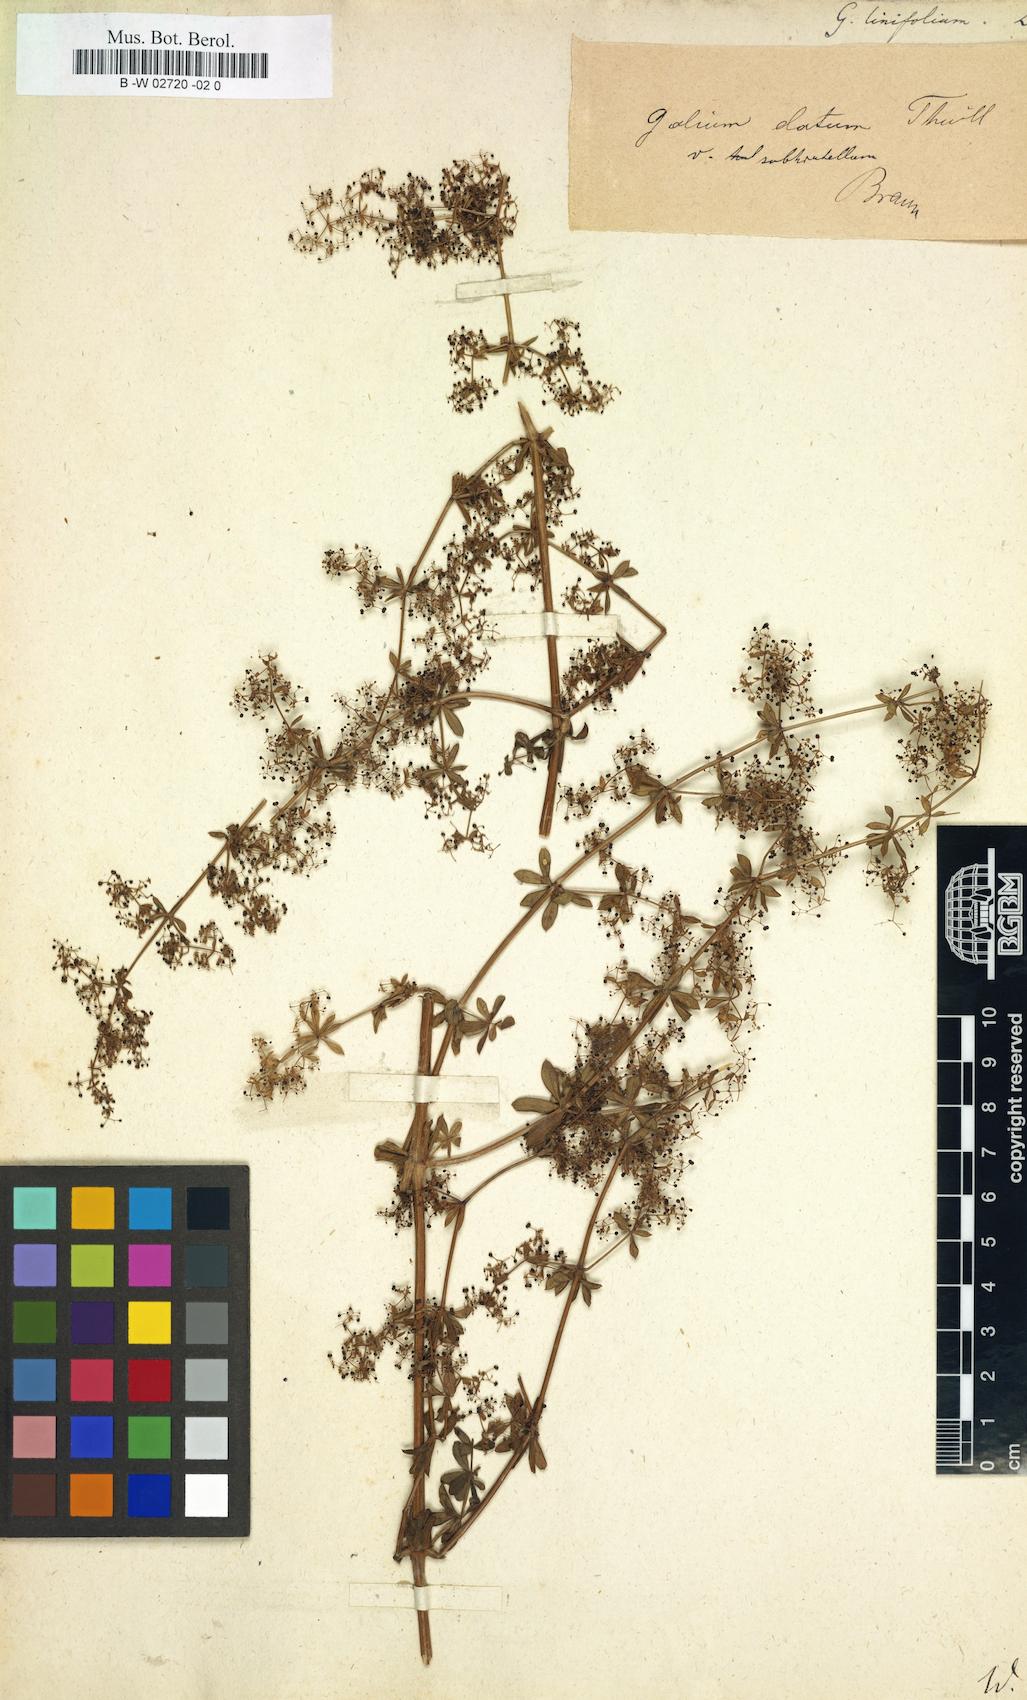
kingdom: Plantae
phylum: Tracheophyta
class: Magnoliopsida
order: Gentianales
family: Rubiaceae
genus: Galium
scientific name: Galium aristatum
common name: Awned bedstraw
